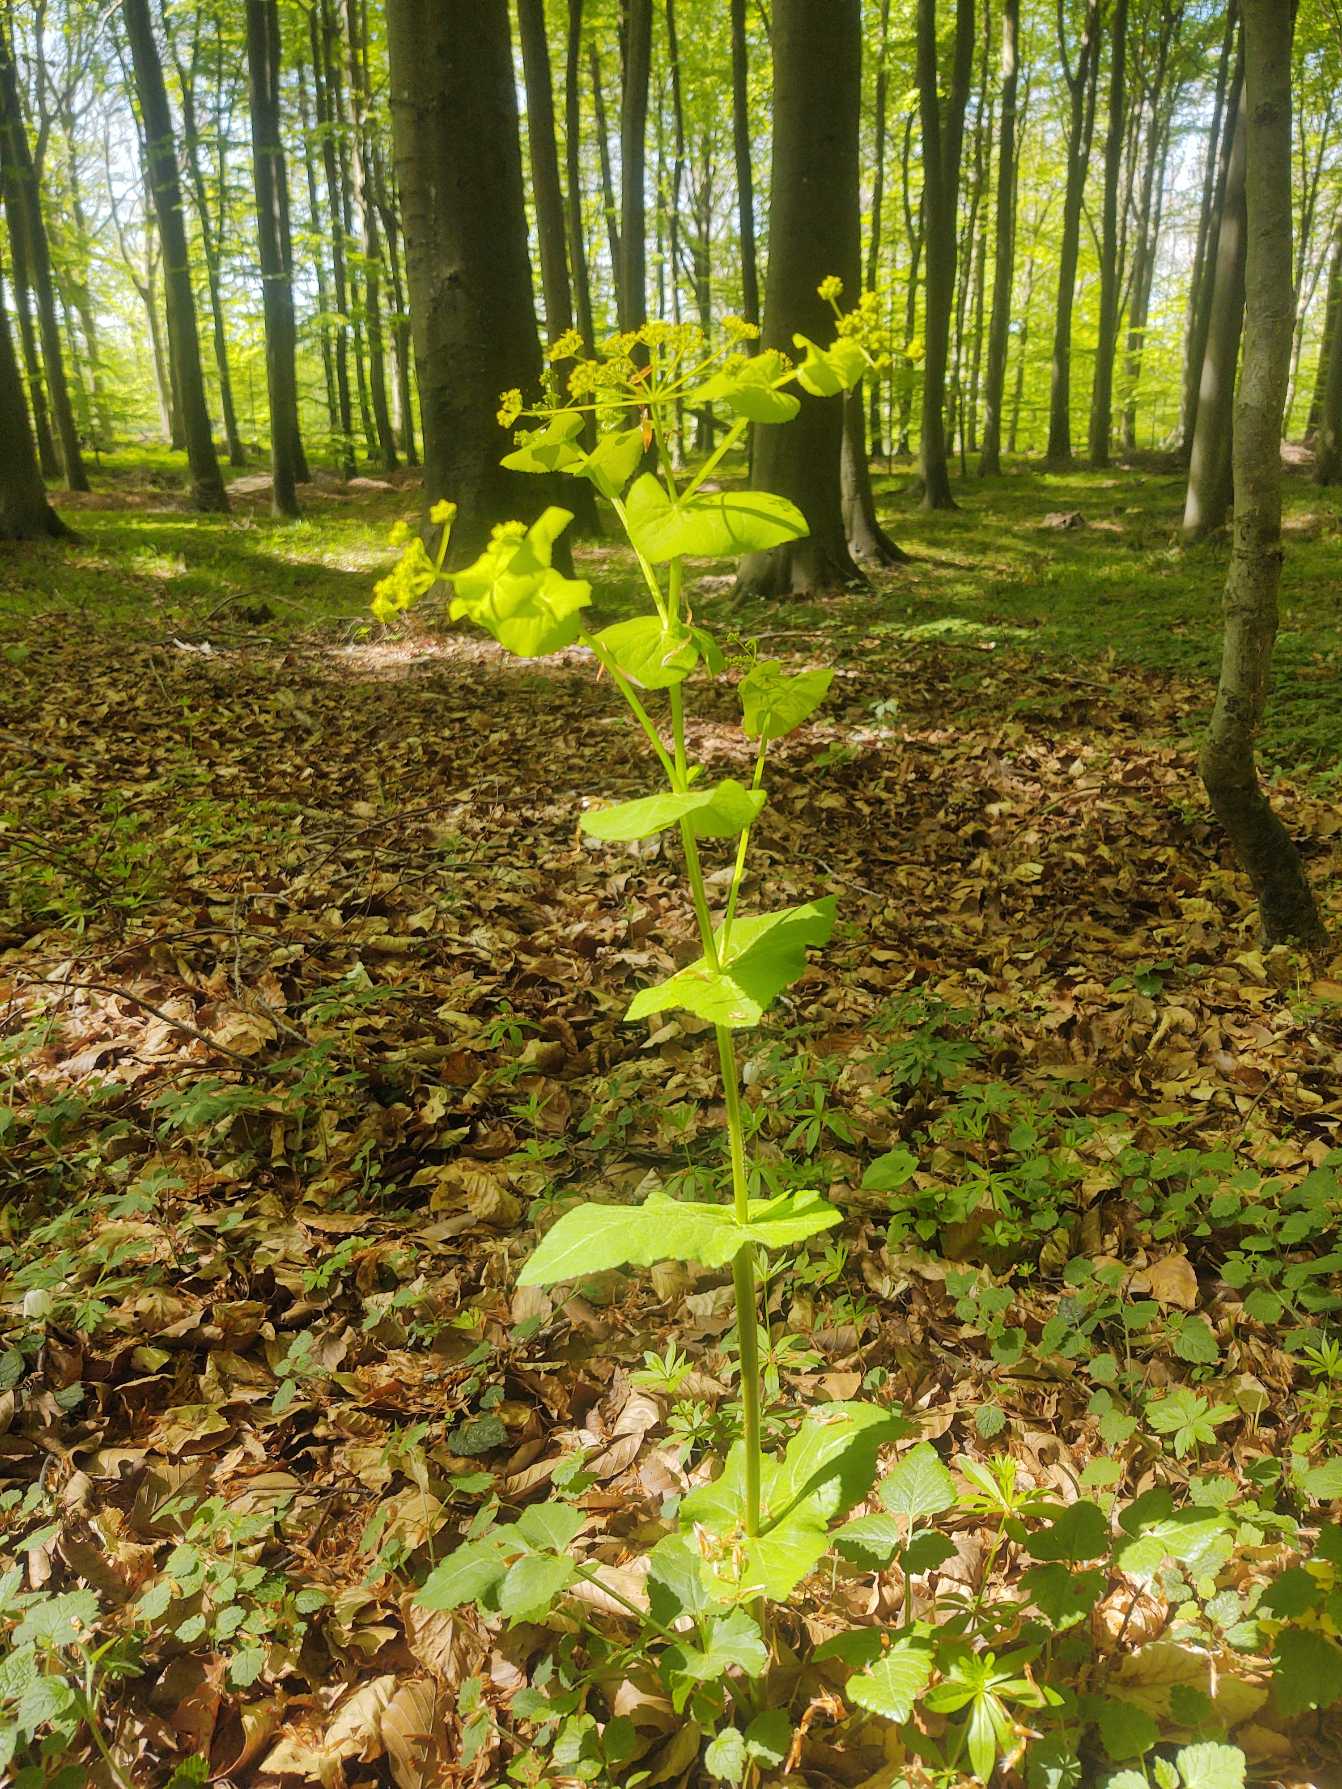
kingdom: Plantae
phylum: Tracheophyta
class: Magnoliopsida
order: Apiales
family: Apiaceae
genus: Smyrnium
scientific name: Smyrnium perfoliatum
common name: Lundgylden
